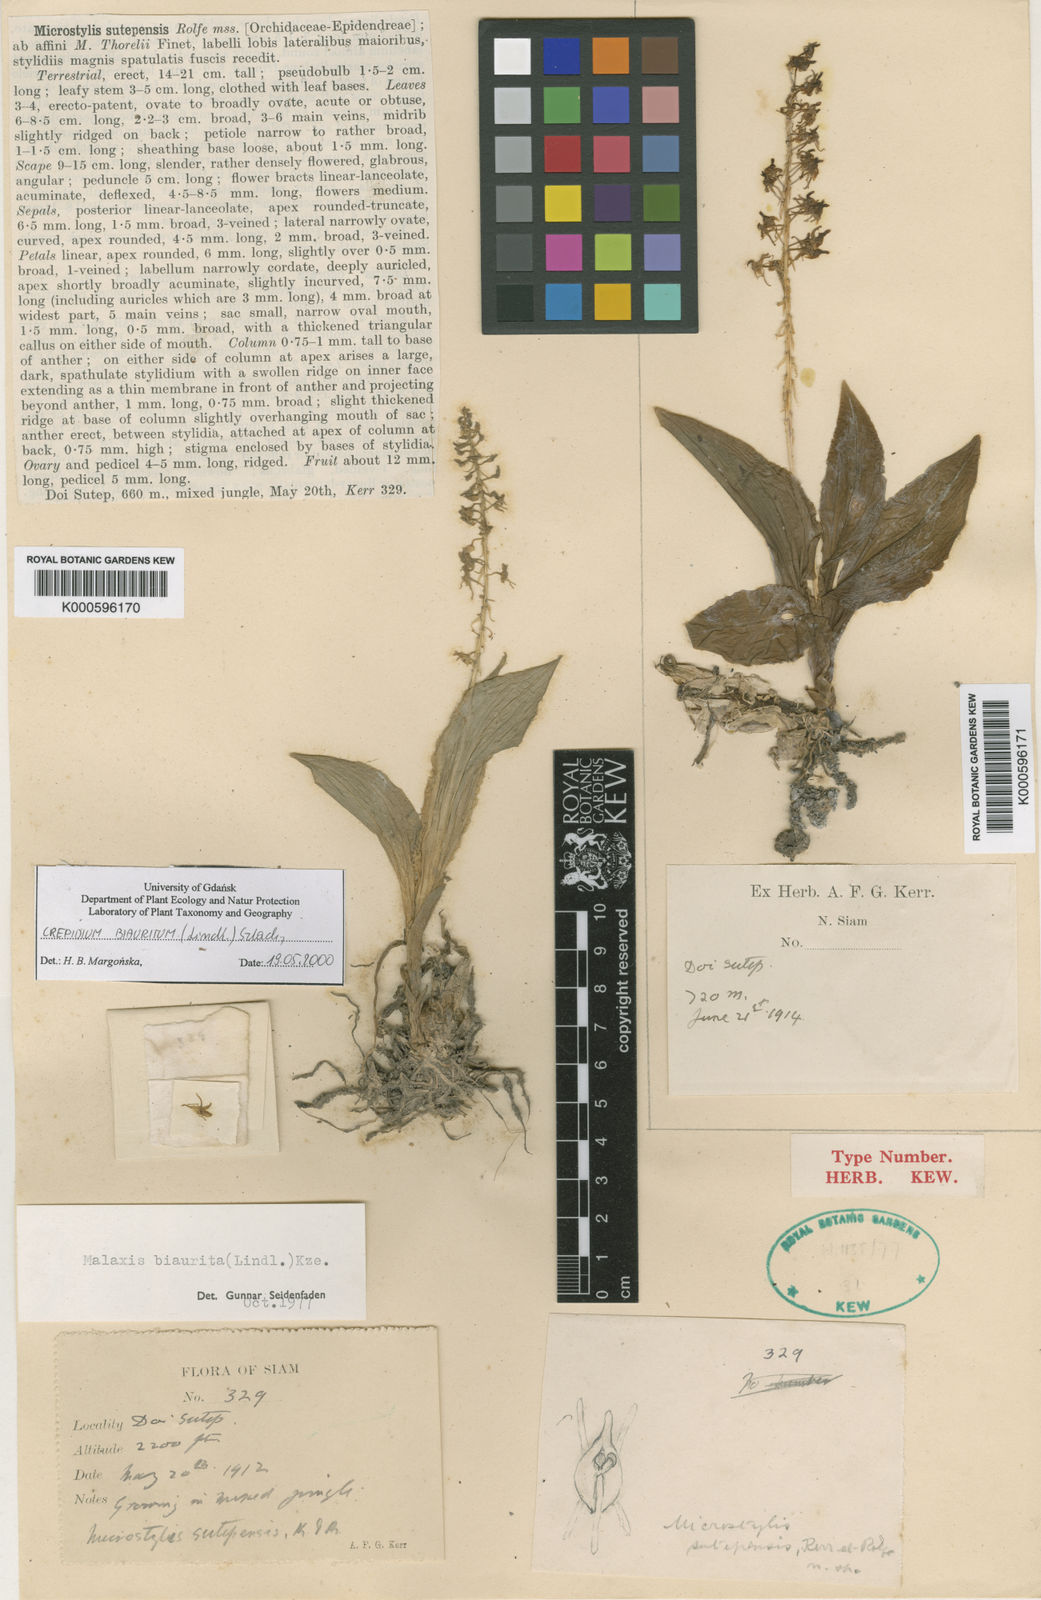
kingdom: Plantae
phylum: Tracheophyta
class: Liliopsida
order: Asparagales
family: Orchidaceae
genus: Crepidium
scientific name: Crepidium biauritum
